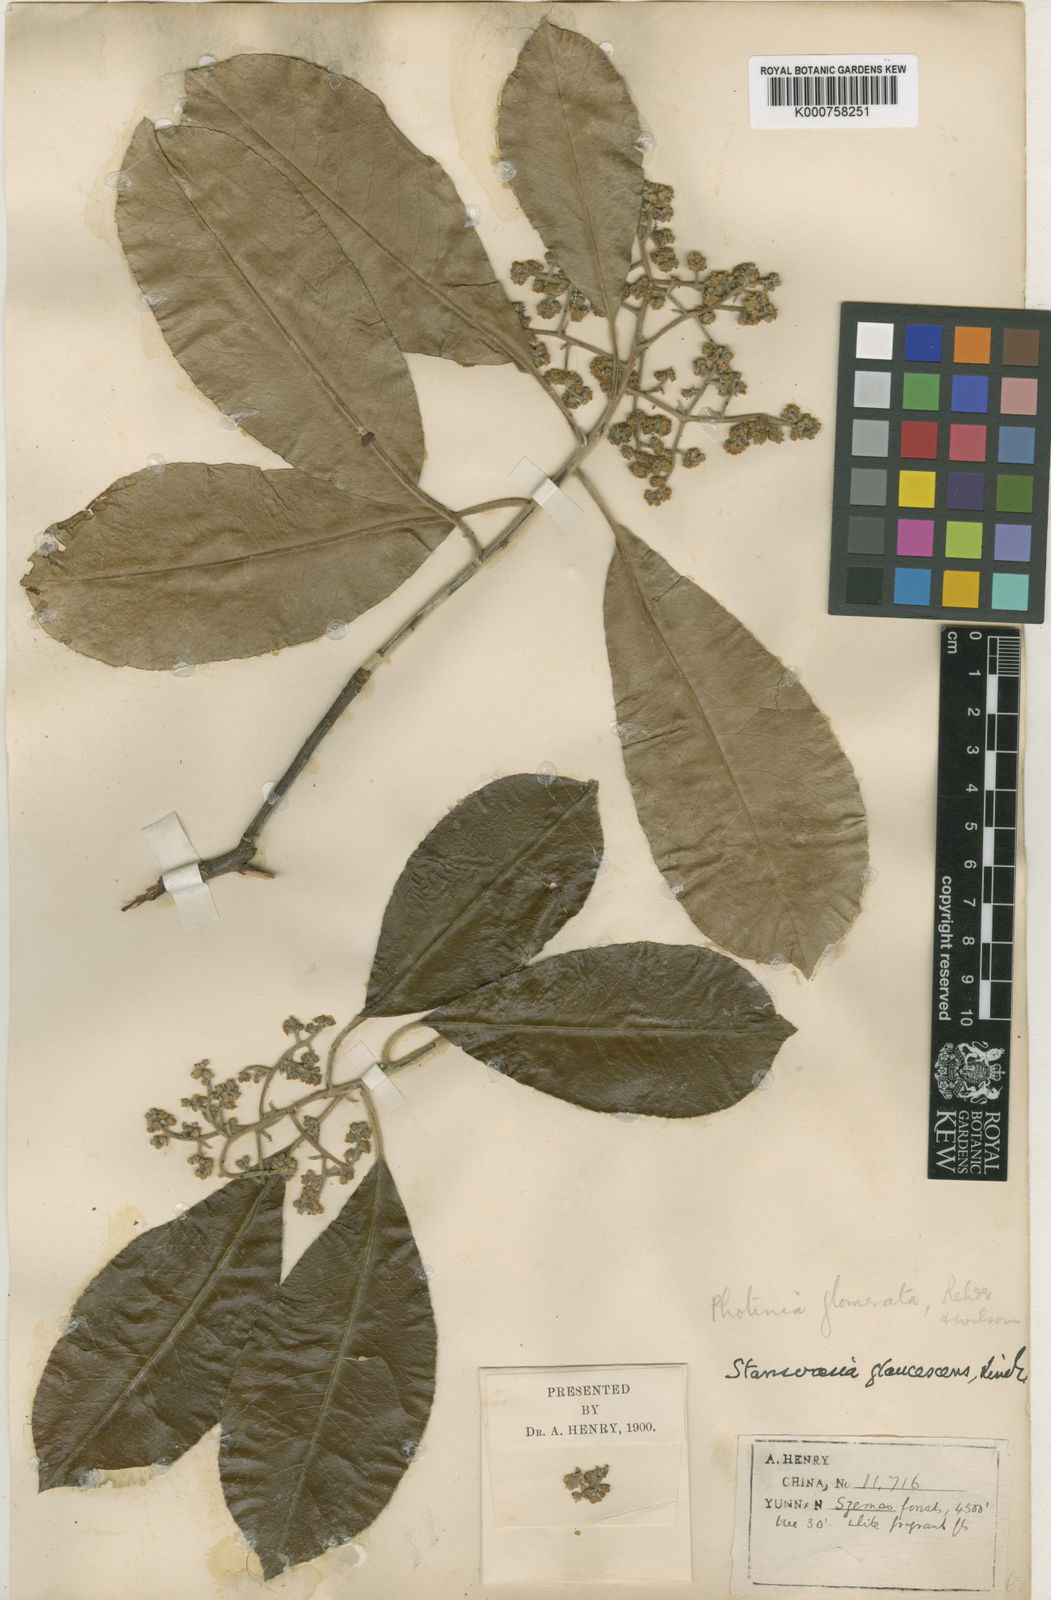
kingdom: Plantae
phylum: Tracheophyta
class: Magnoliopsida
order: Rosales
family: Rosaceae
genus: Photinia
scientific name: Photinia griffithii
